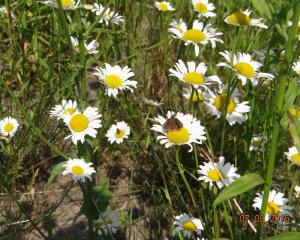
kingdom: Animalia
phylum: Arthropoda
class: Insecta
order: Lepidoptera
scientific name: Lepidoptera
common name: Butterflies
